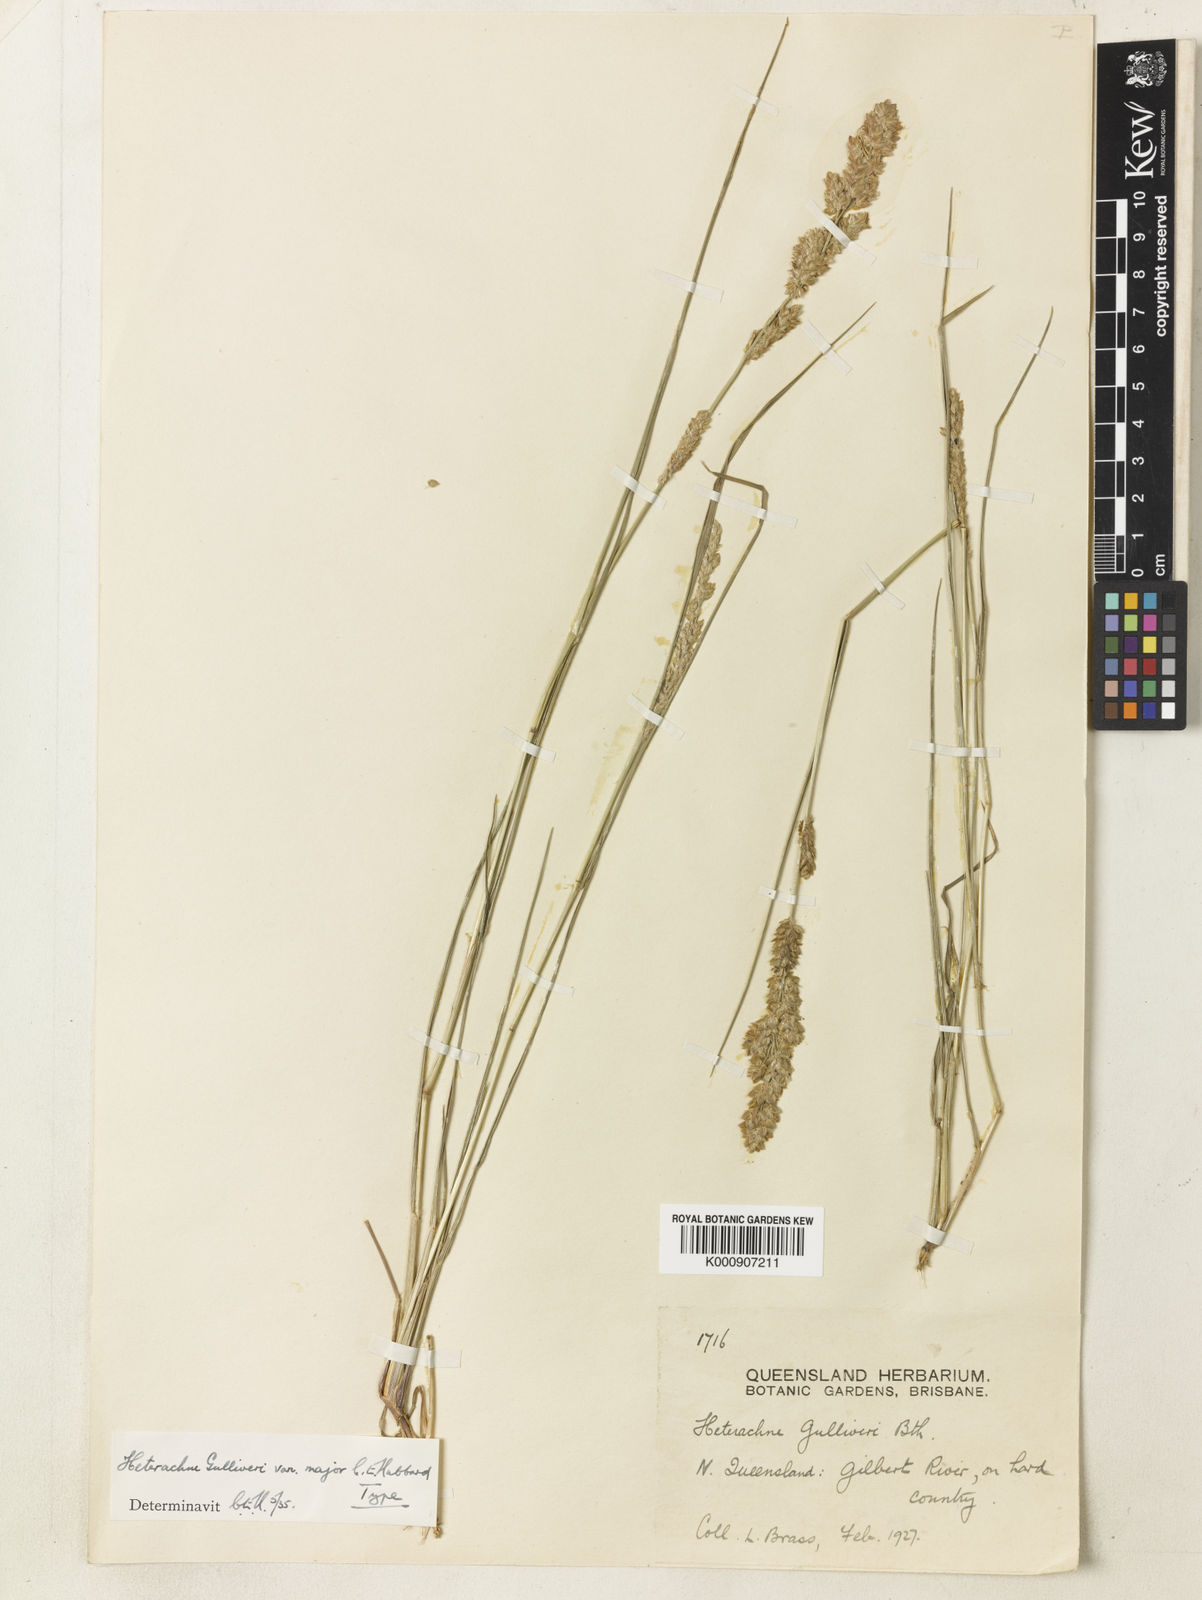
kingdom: Plantae
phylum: Tracheophyta
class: Liliopsida
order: Poales
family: Poaceae
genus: Eragrostis
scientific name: Eragrostis lilliputiana
